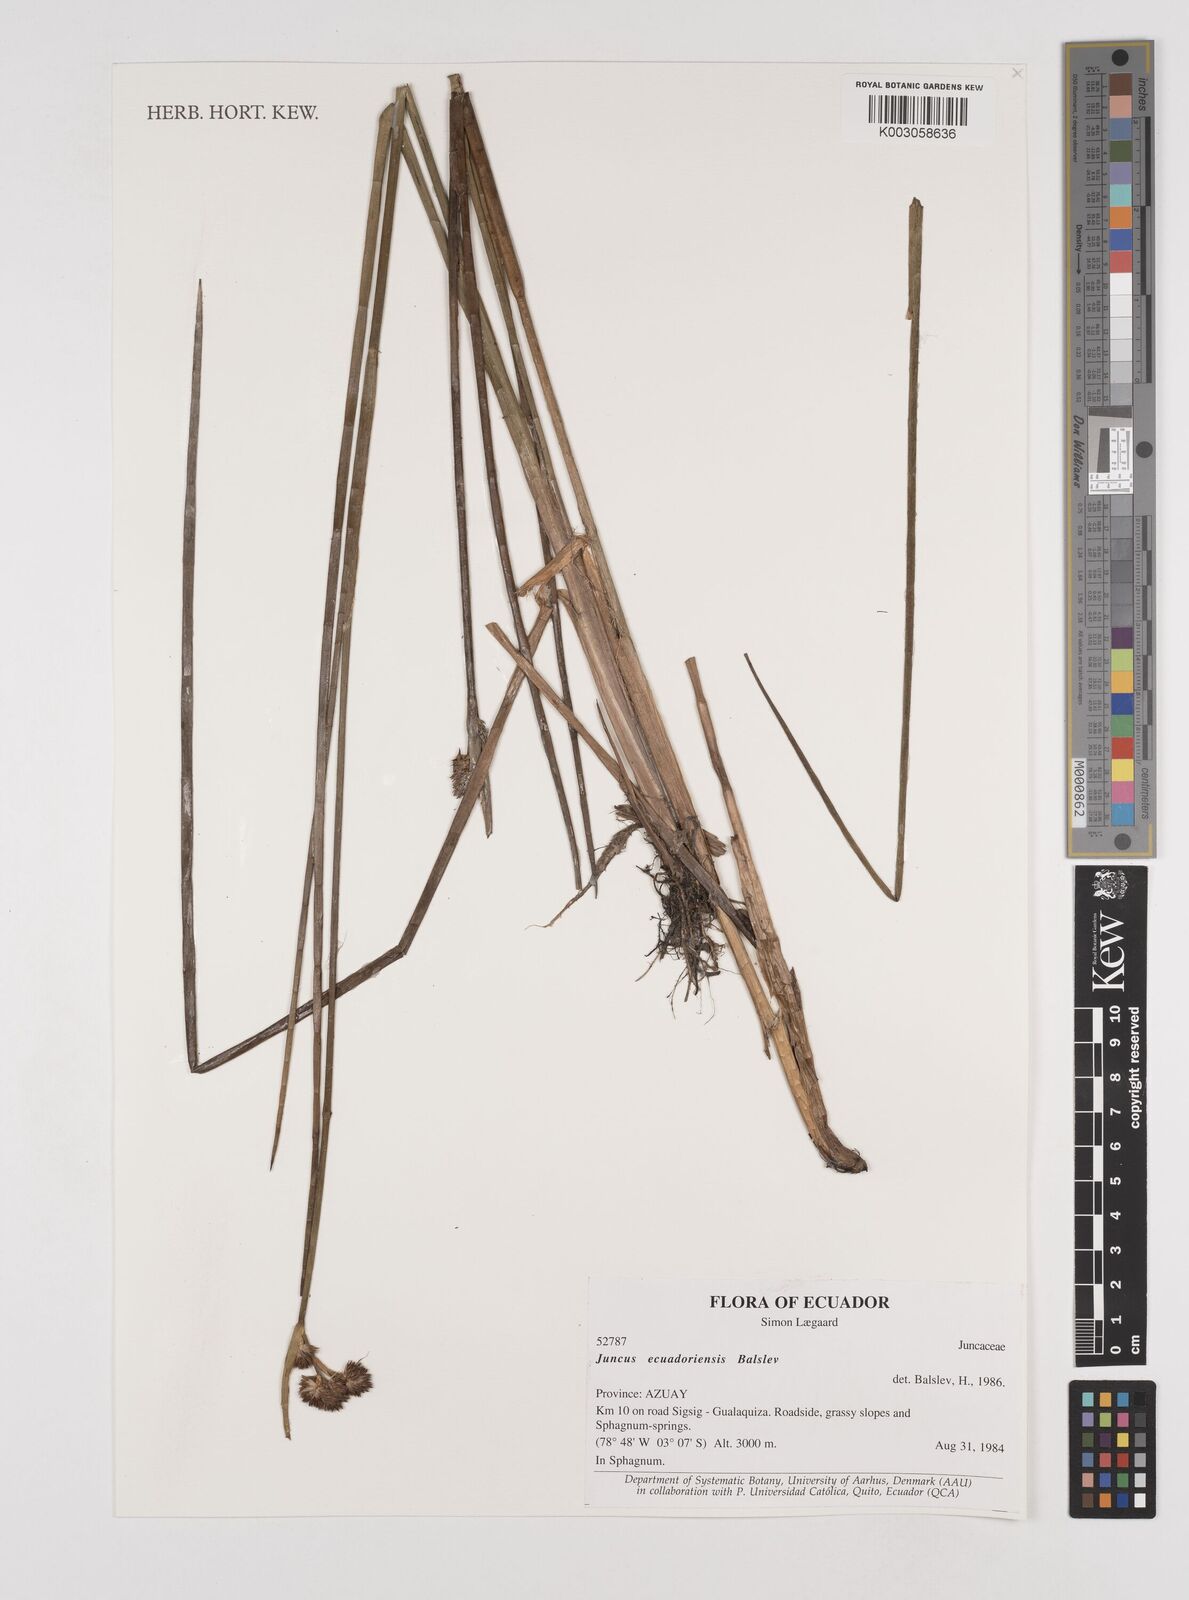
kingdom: Plantae
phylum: Tracheophyta
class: Liliopsida
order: Poales
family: Juncaceae
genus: Juncus
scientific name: Juncus ecuadoriensis
